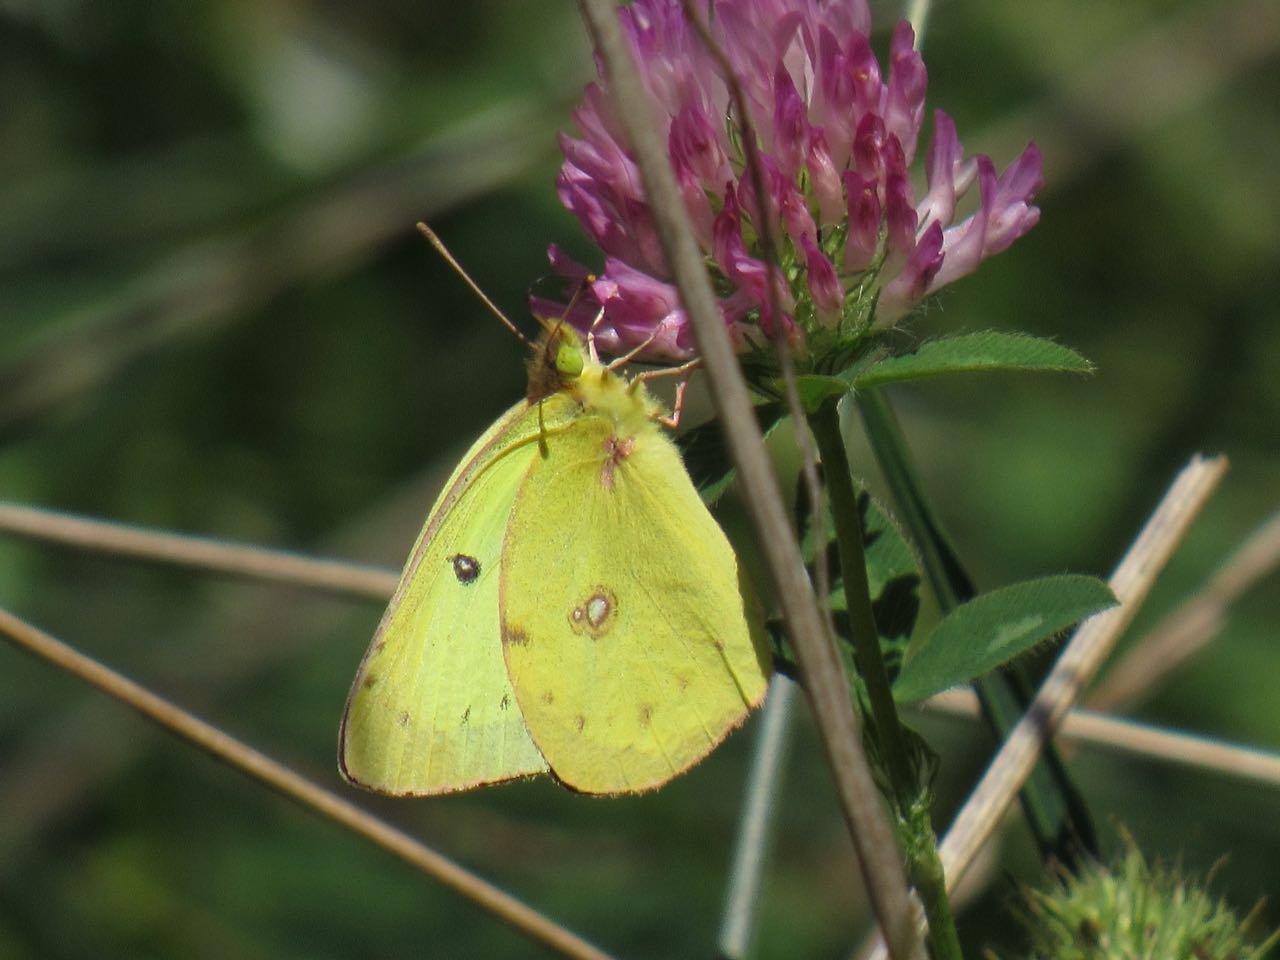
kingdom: Animalia
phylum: Arthropoda
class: Insecta
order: Lepidoptera
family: Pieridae
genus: Colias
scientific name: Colias philodice
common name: Clouded Sulphur
